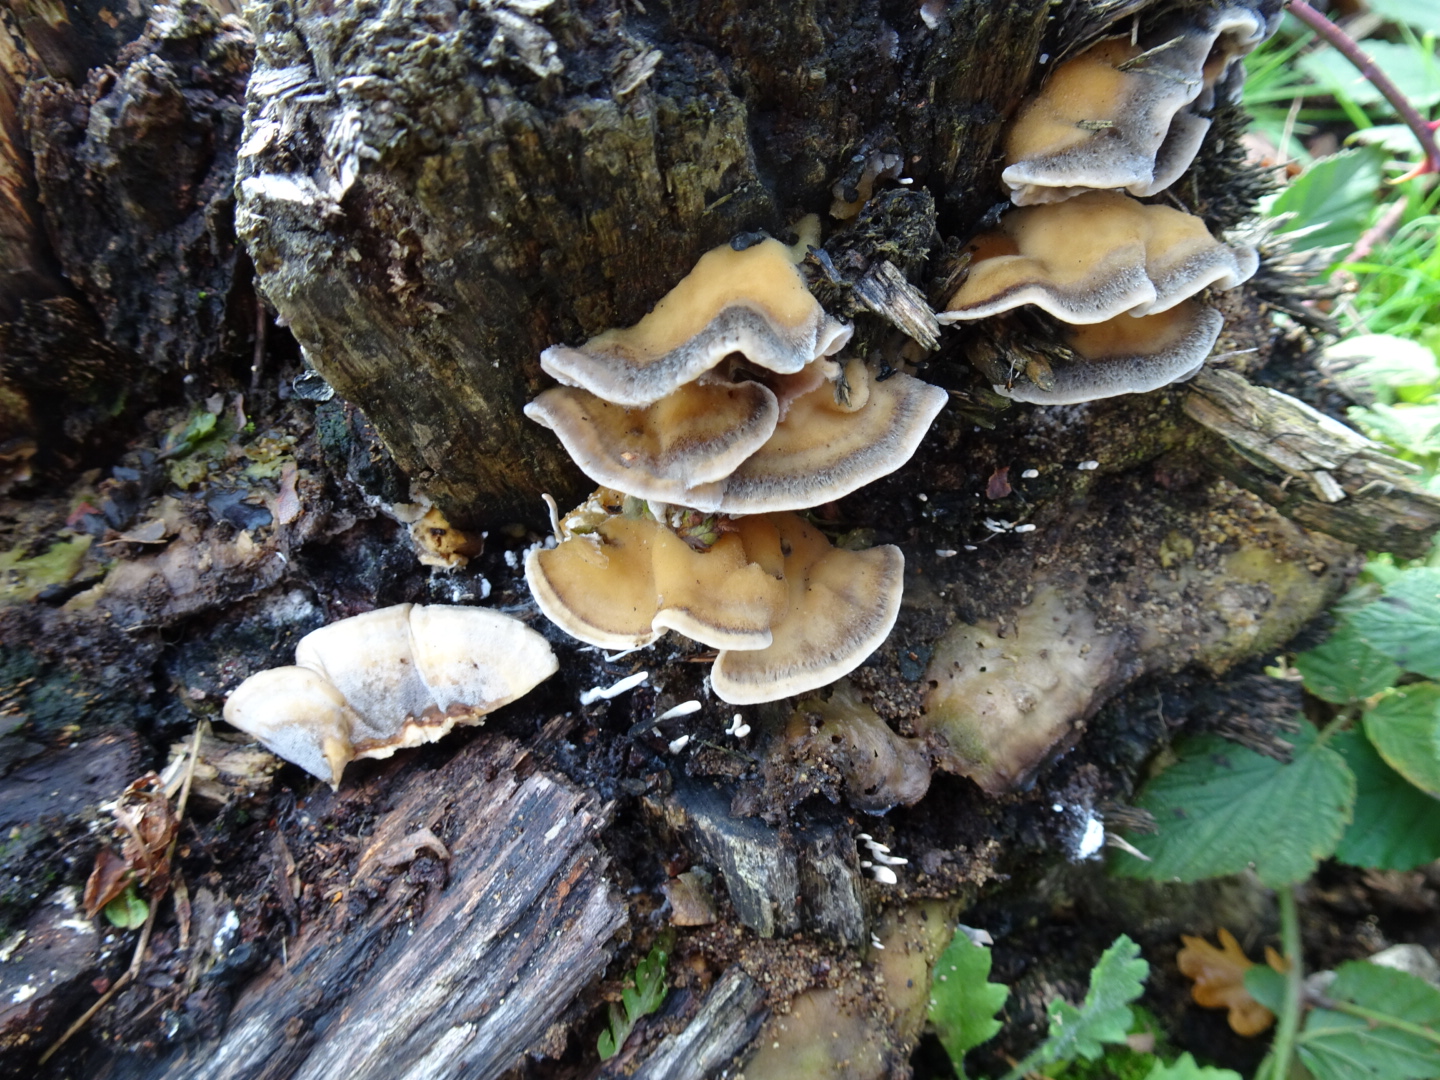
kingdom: Fungi
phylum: Basidiomycota
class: Agaricomycetes
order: Polyporales
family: Phanerochaetaceae
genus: Bjerkandera
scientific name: Bjerkandera adusta
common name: sveden sodporesvamp
